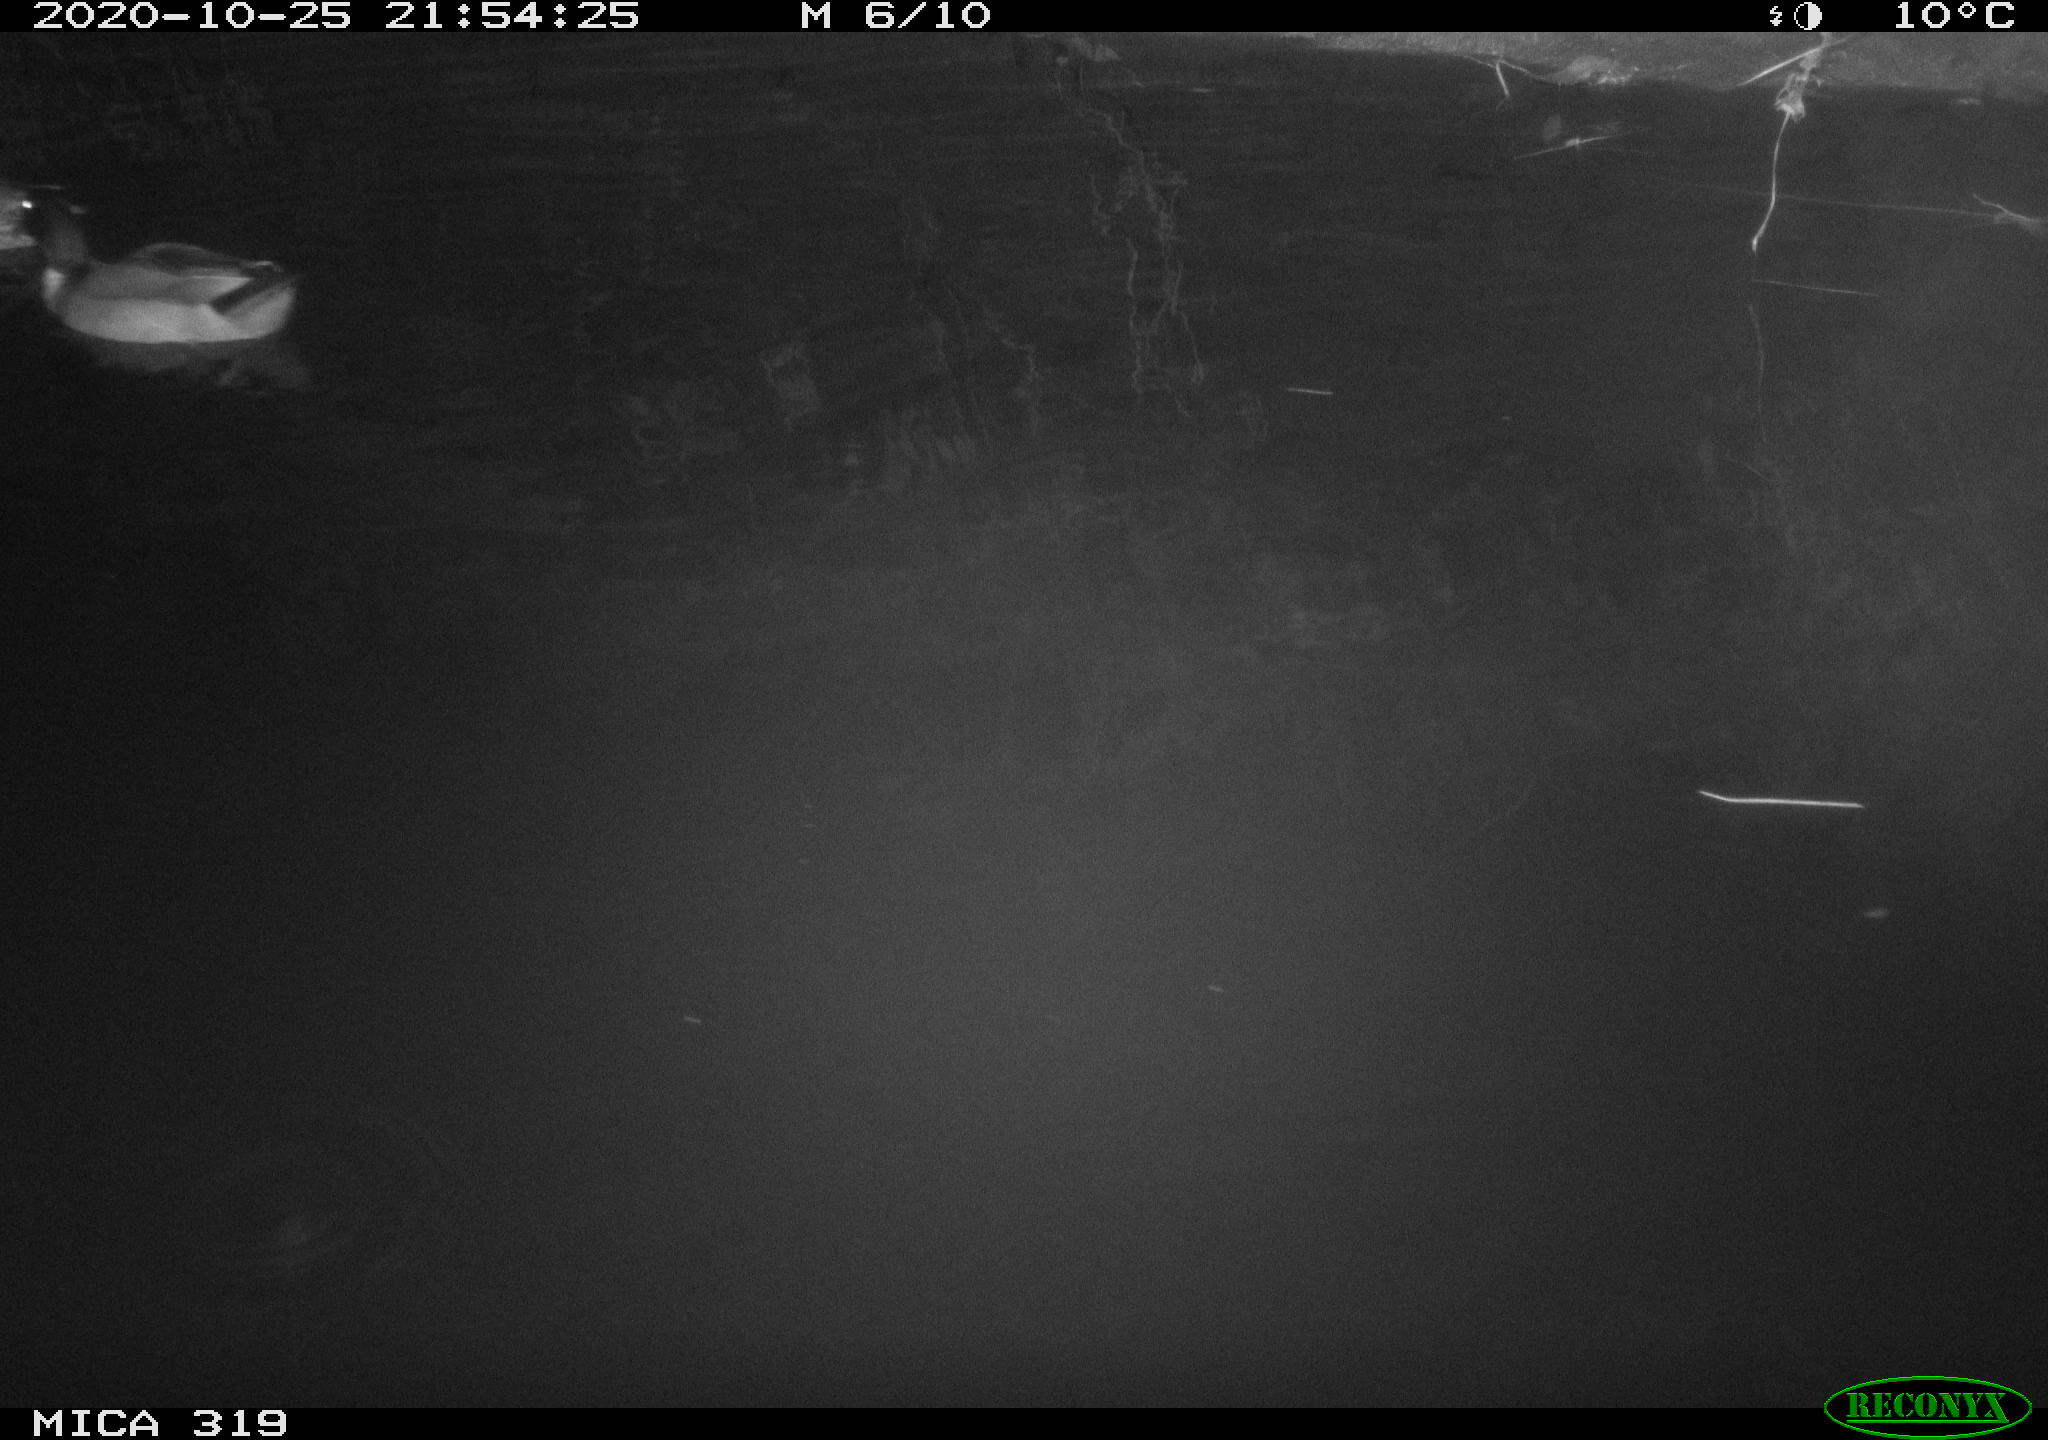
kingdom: Animalia
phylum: Chordata
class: Aves
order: Anseriformes
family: Anatidae
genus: Anas
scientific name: Anas platyrhynchos
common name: Mallard
